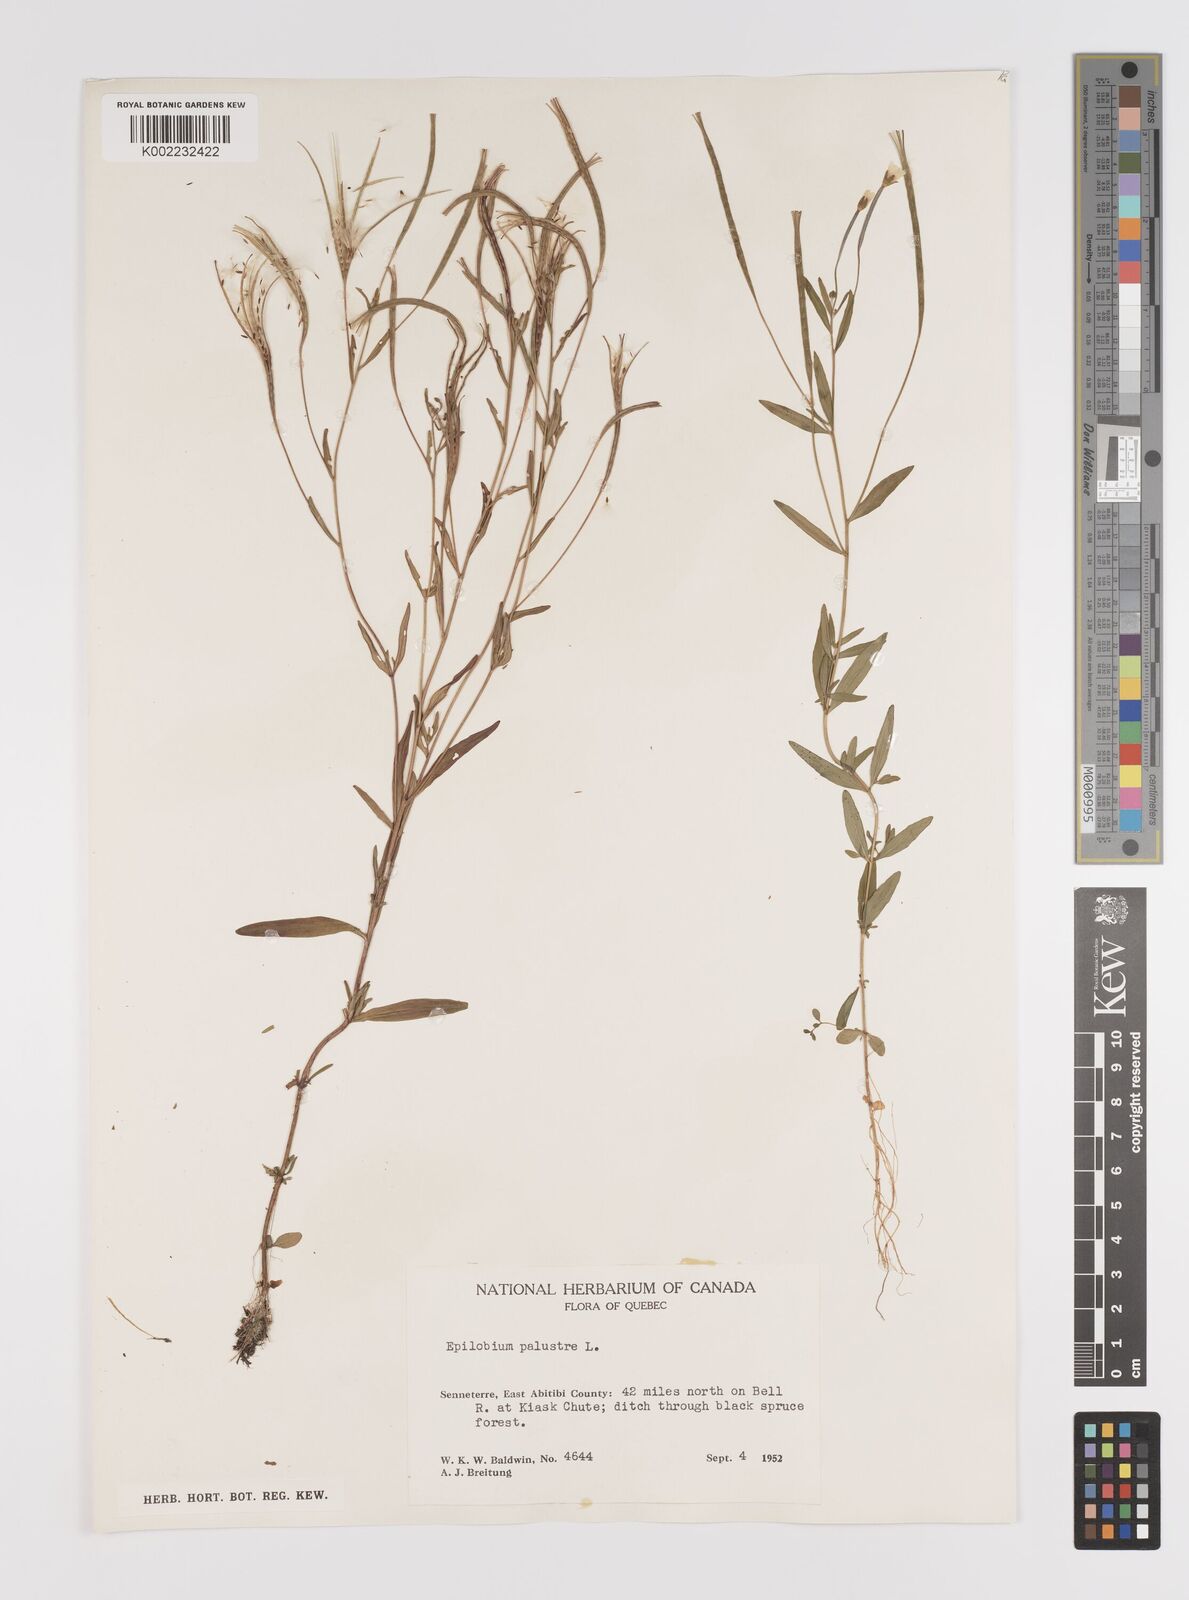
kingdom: Plantae
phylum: Tracheophyta
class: Magnoliopsida
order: Myrtales
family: Onagraceae
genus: Epilobium
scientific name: Epilobium palustre
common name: Marsh willowherb
